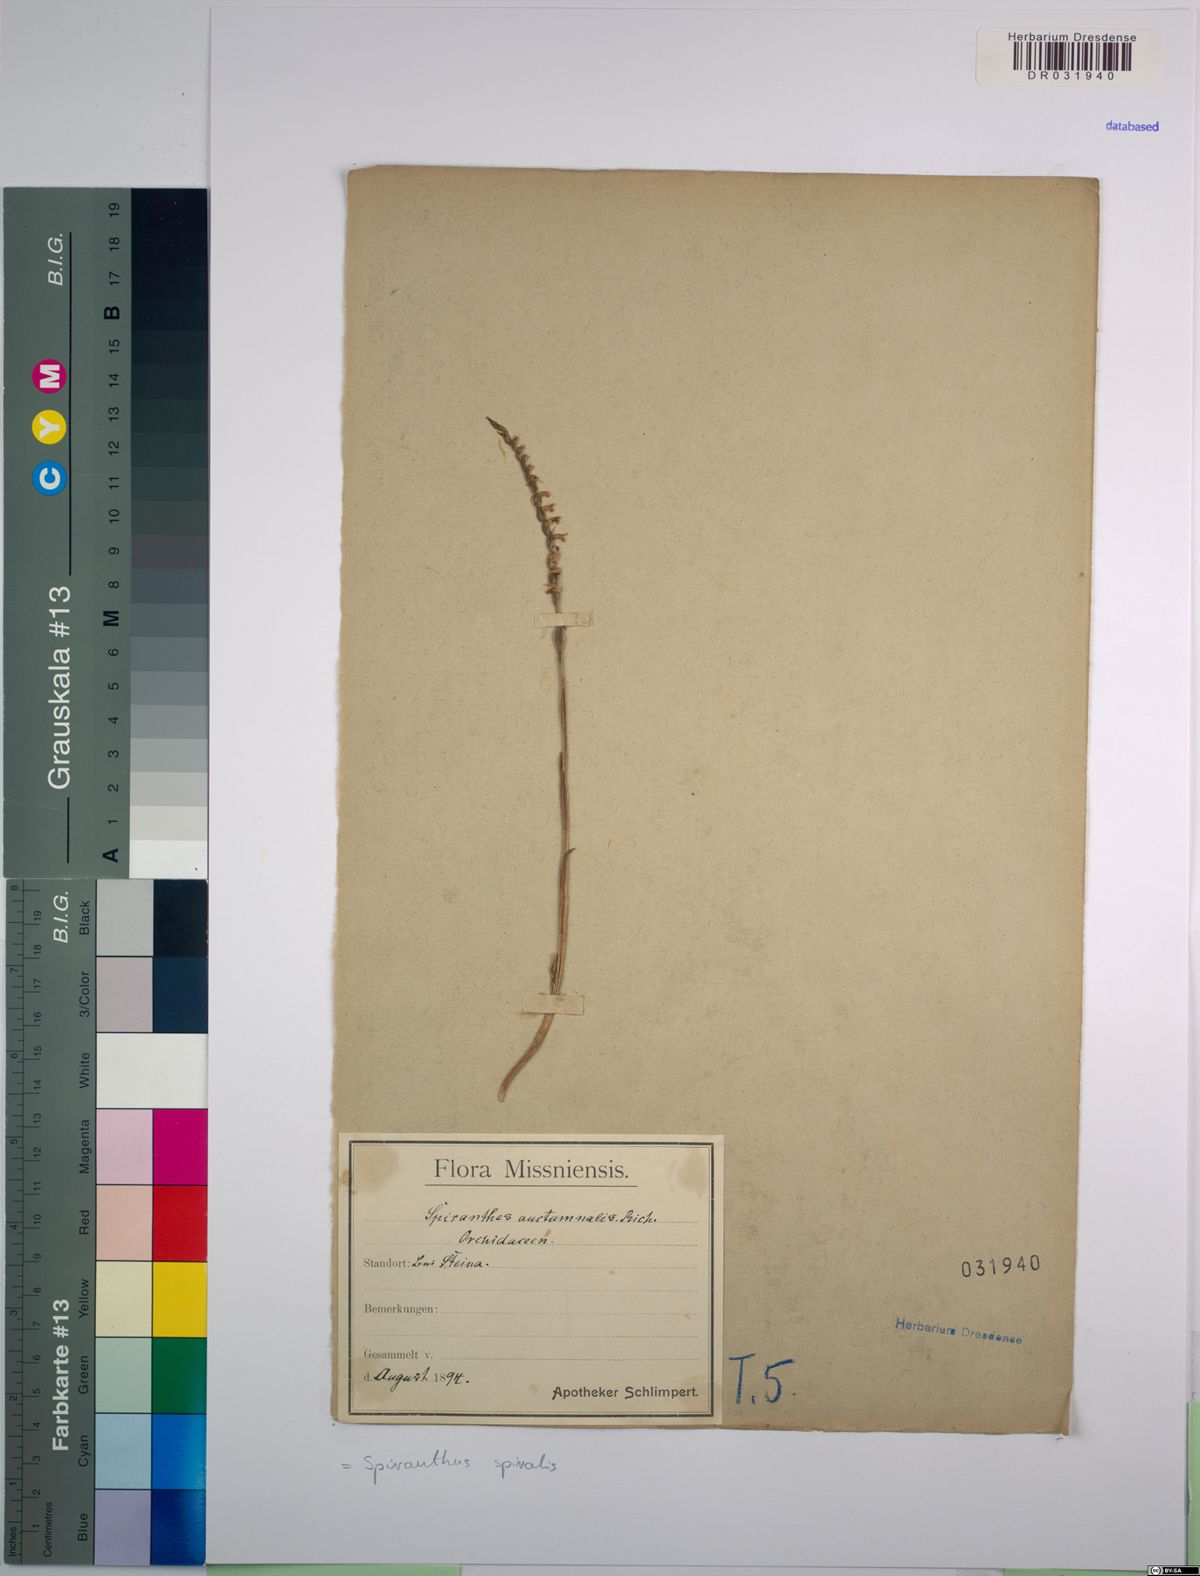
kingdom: Plantae
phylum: Tracheophyta
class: Liliopsida
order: Asparagales
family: Orchidaceae
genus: Spiranthes
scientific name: Spiranthes spiralis
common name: Autumn lady's-tresses
